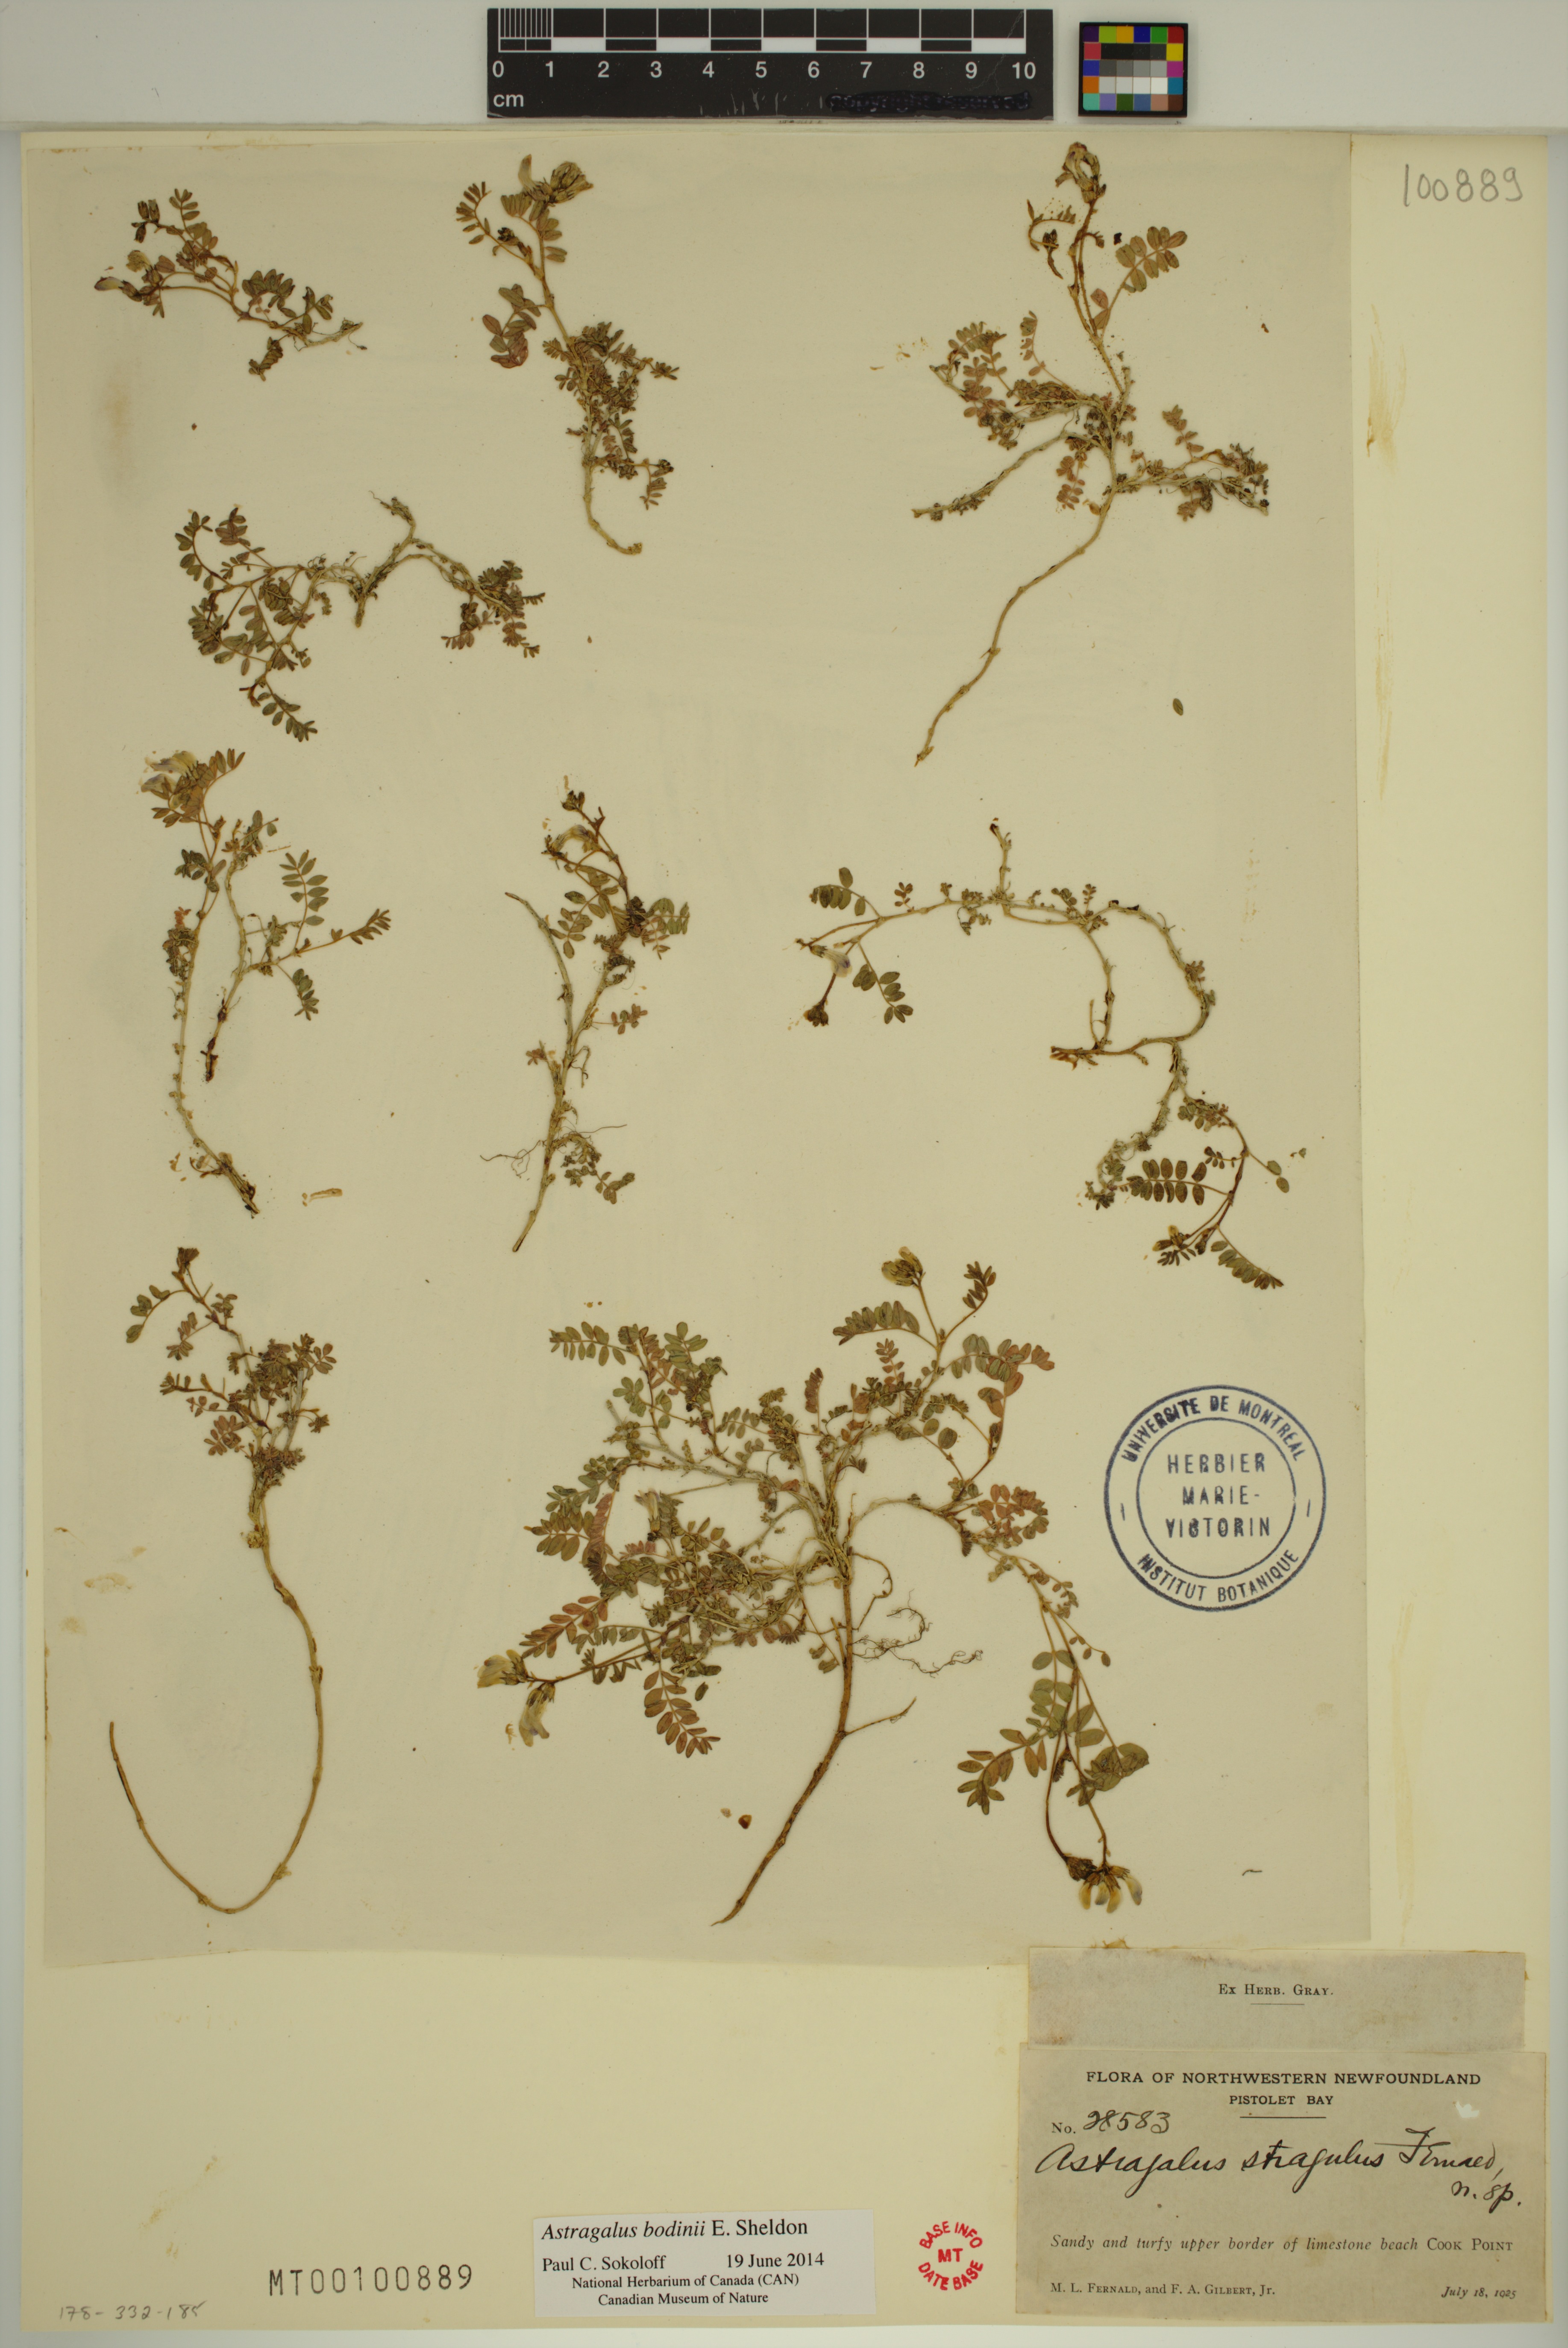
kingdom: Plantae
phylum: Tracheophyta
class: Magnoliopsida
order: Fabales
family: Fabaceae
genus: Astragalus
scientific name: Astragalus bodinii
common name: Bodin's milk-vetch
